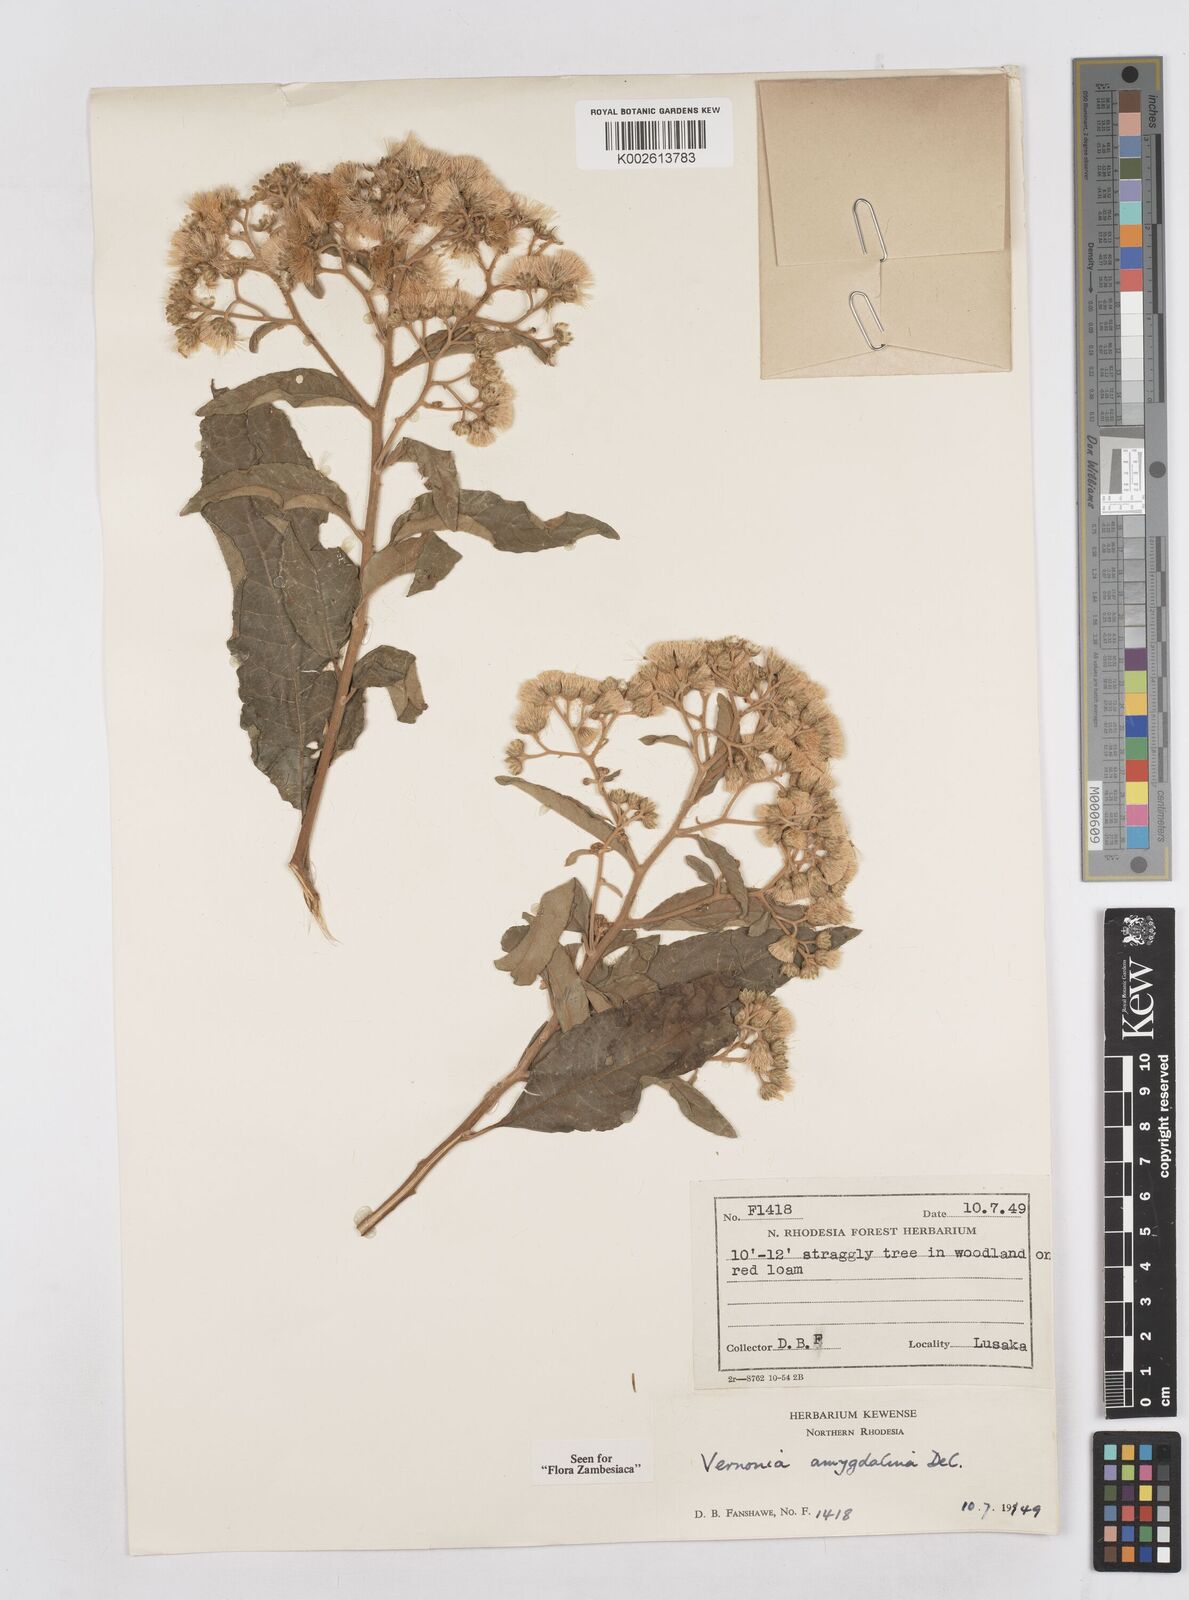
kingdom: Plantae
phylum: Tracheophyta
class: Magnoliopsida
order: Asterales
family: Asteraceae
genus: Gymnanthemum
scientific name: Gymnanthemum amygdalinum
